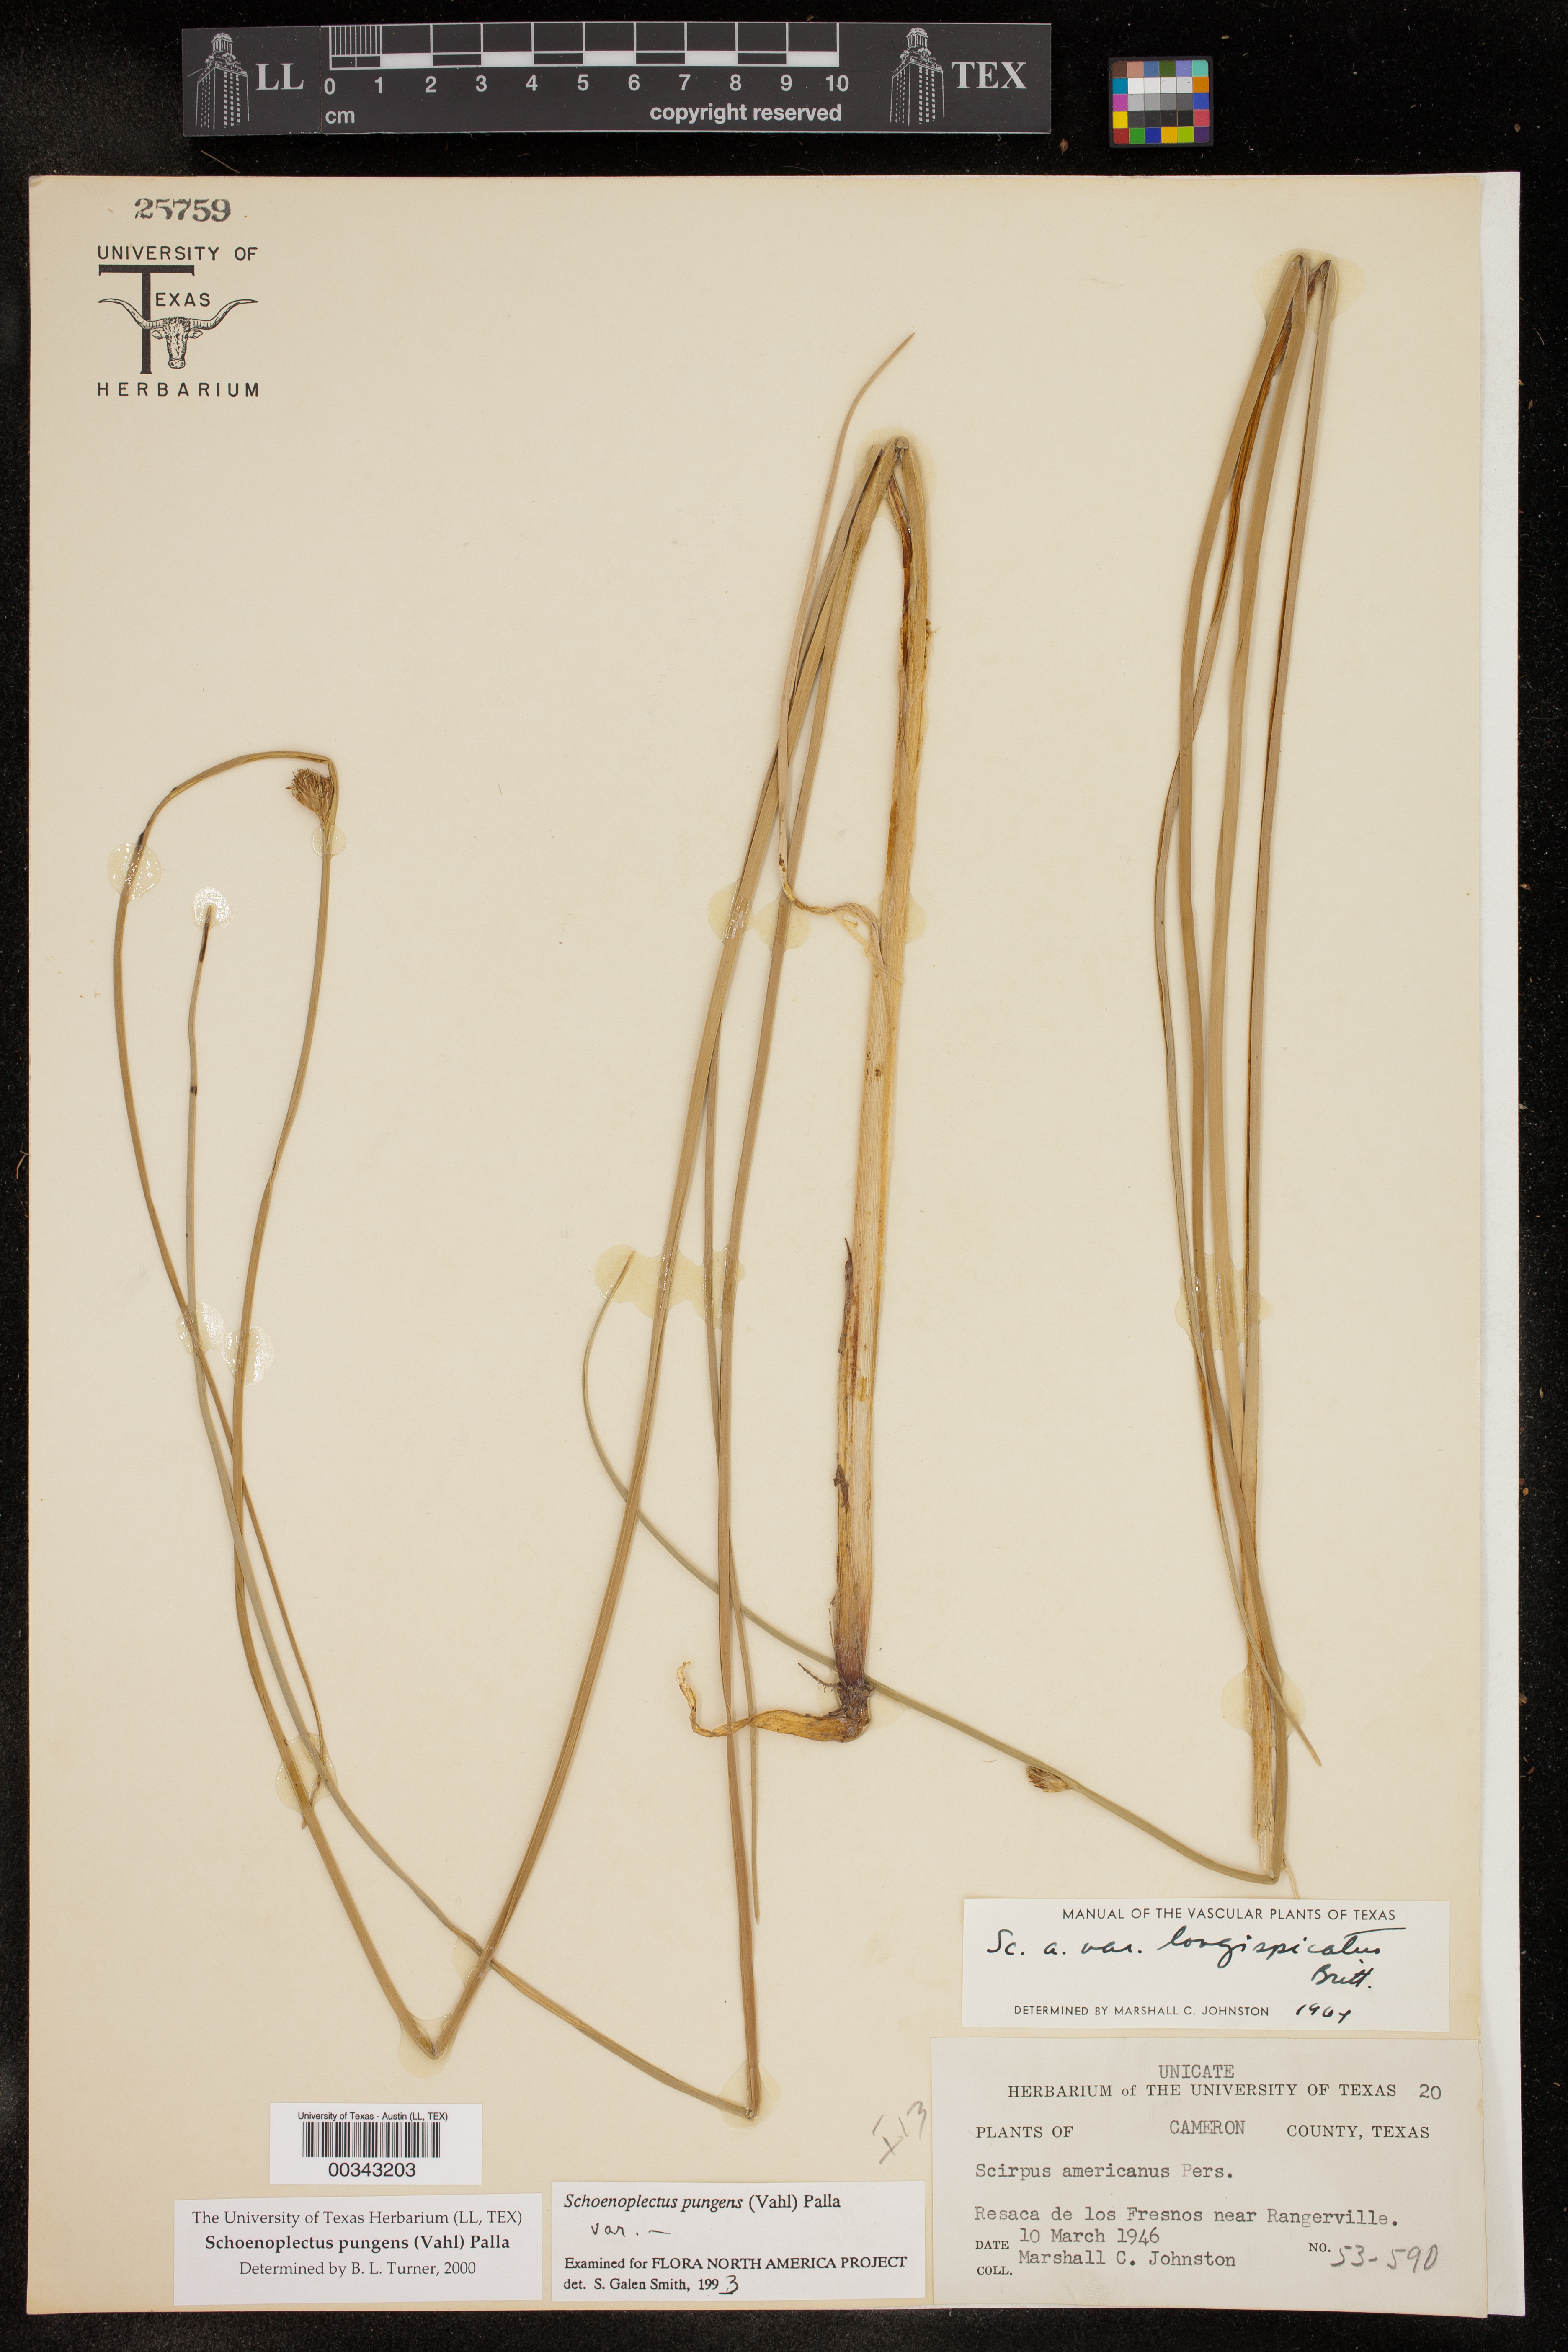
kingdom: Plantae
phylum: Tracheophyta
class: Liliopsida
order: Poales
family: Cyperaceae
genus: Schoenoplectus
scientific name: Schoenoplectus pungens
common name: Sharp club-rush
